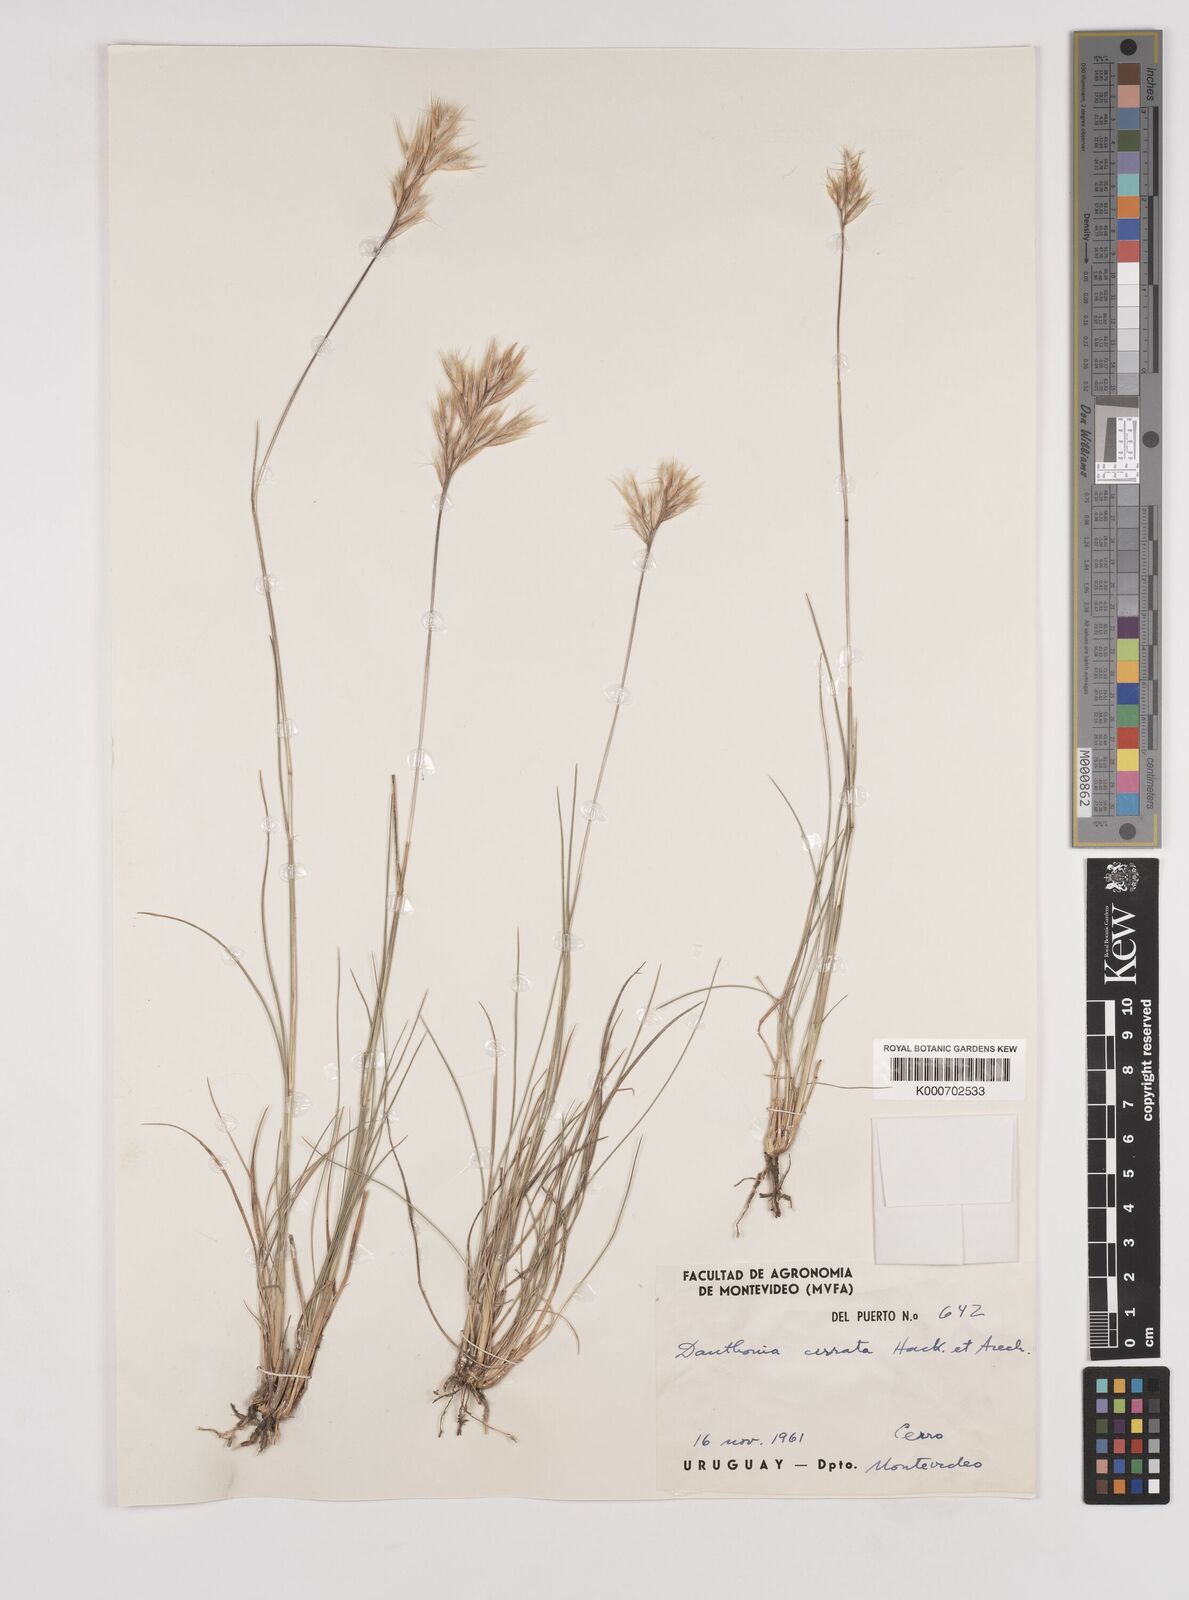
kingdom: Plantae
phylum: Tracheophyta
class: Liliopsida
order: Poales
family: Poaceae
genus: Danthonia
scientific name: Danthonia cirrata
